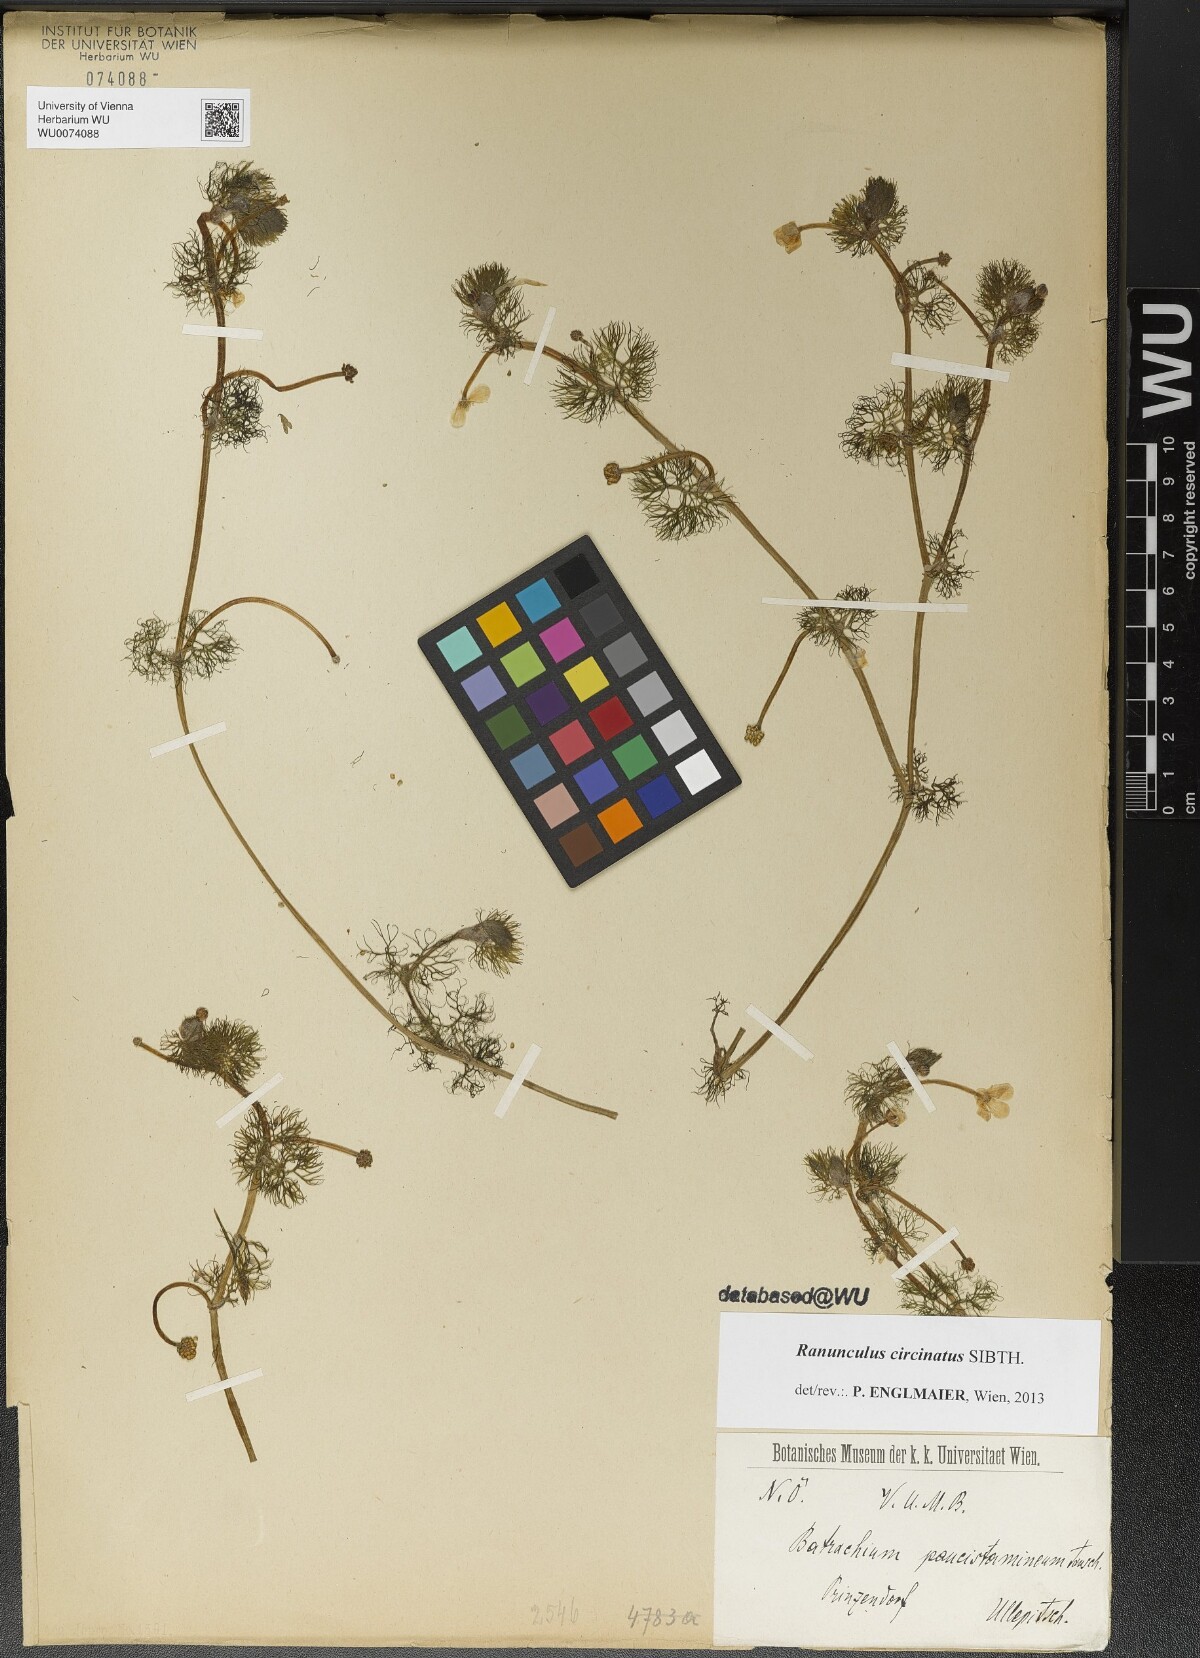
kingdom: Plantae
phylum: Tracheophyta
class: Magnoliopsida
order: Ranunculales
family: Ranunculaceae
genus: Ranunculus
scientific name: Ranunculus circinatus
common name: Fan-leaved water-crowfoot
